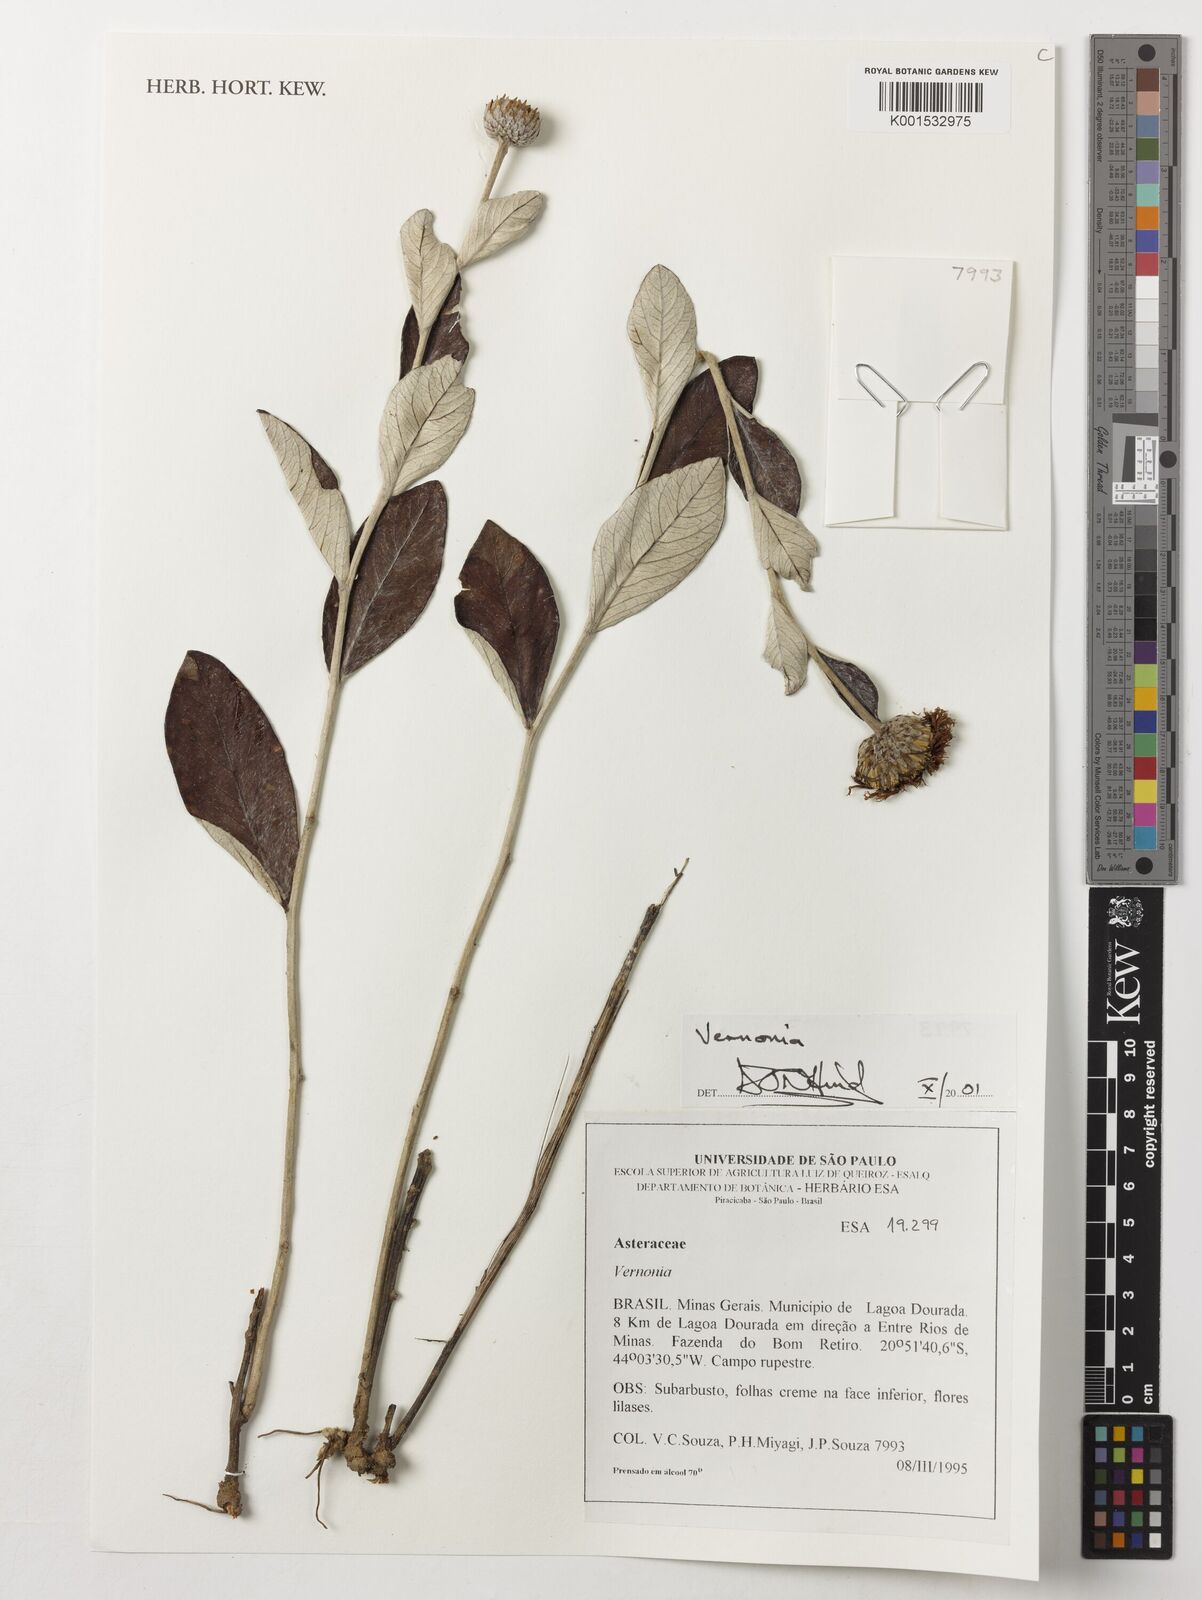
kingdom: Plantae
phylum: Tracheophyta
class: Magnoliopsida
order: Asterales
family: Asteraceae
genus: Vernonia
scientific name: Vernonia
